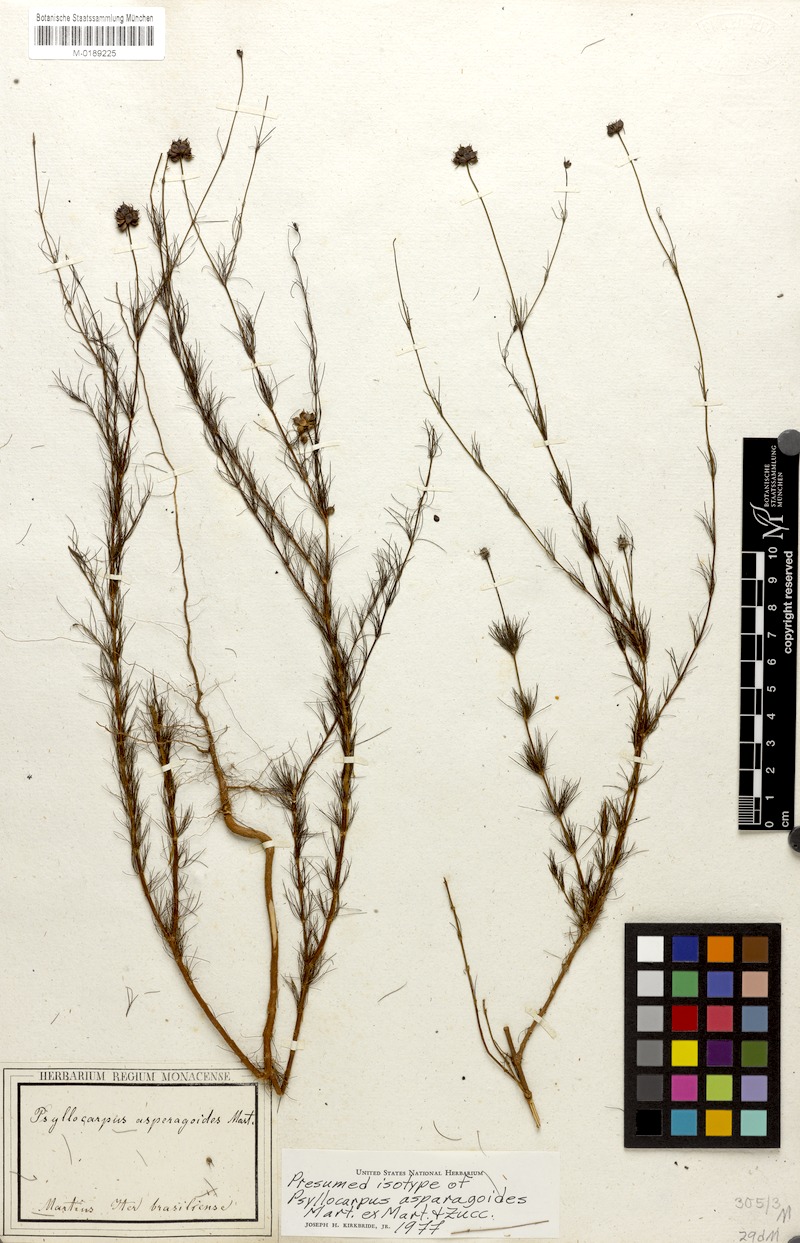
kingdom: Plantae
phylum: Tracheophyta
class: Magnoliopsida
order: Gentianales
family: Rubiaceae
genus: Psyllocarpus
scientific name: Psyllocarpus asparagoides
